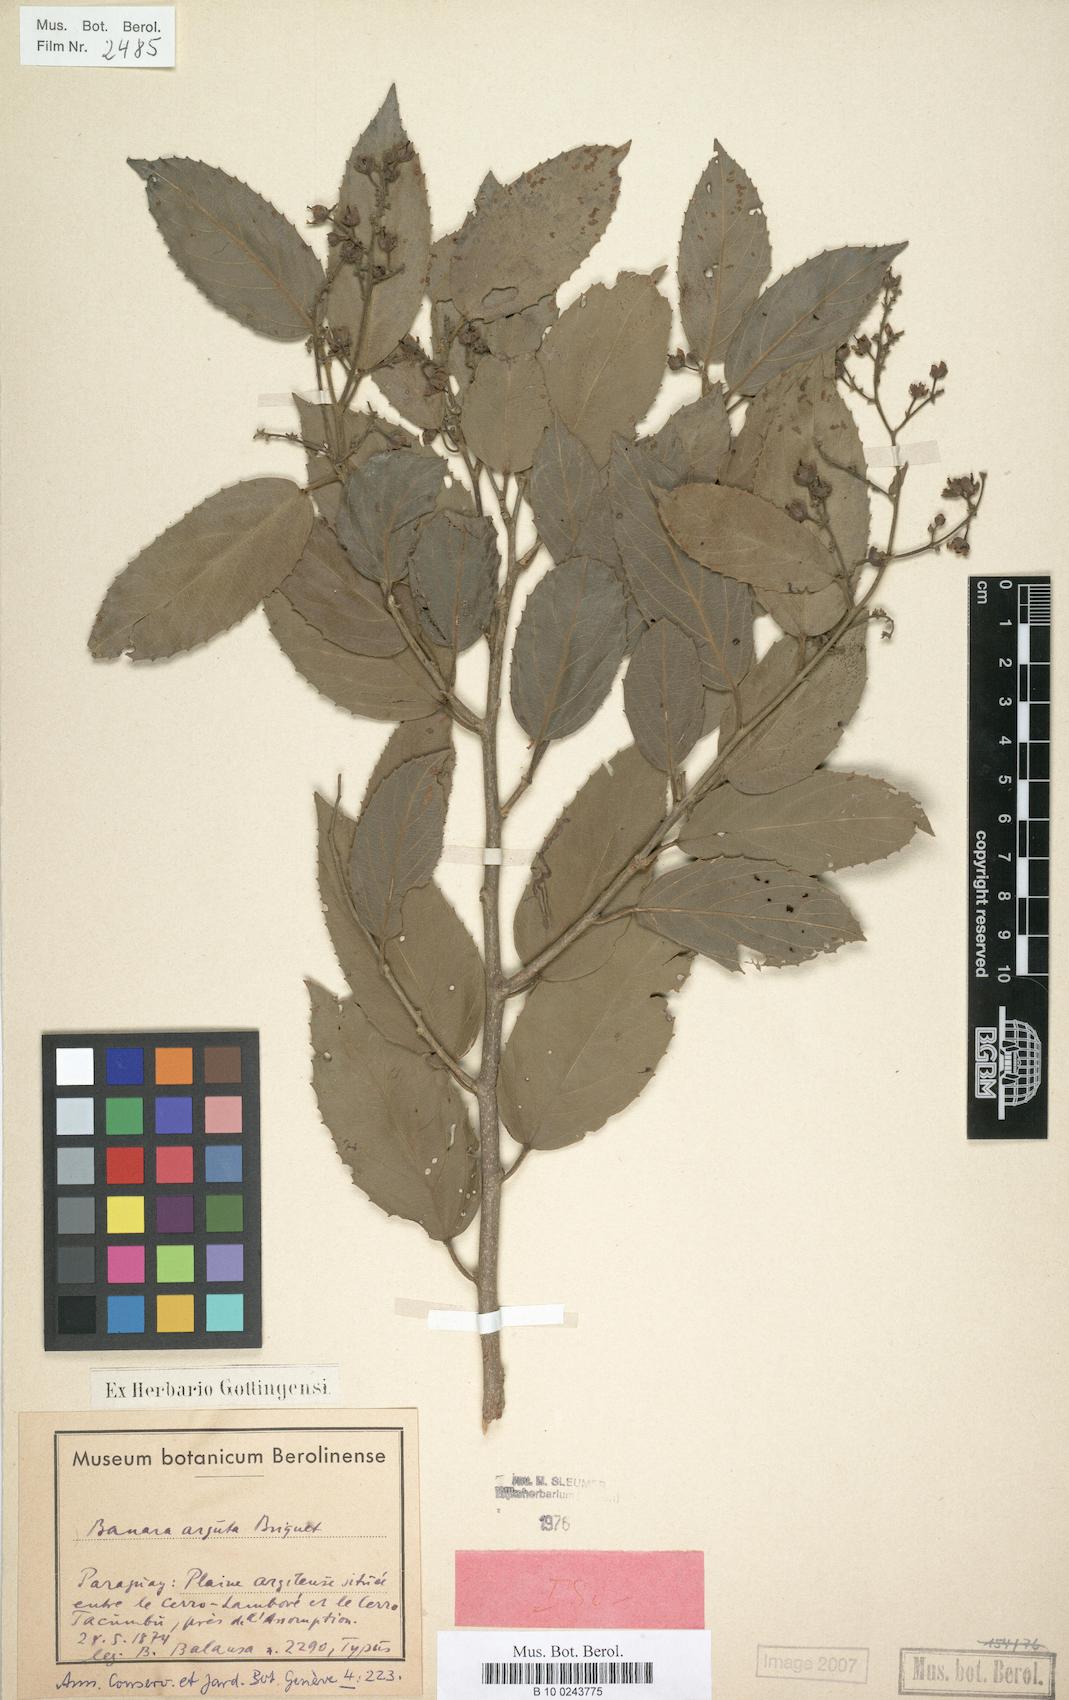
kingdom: Plantae
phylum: Tracheophyta
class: Magnoliopsida
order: Malpighiales
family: Salicaceae
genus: Banara
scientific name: Banara arguta
